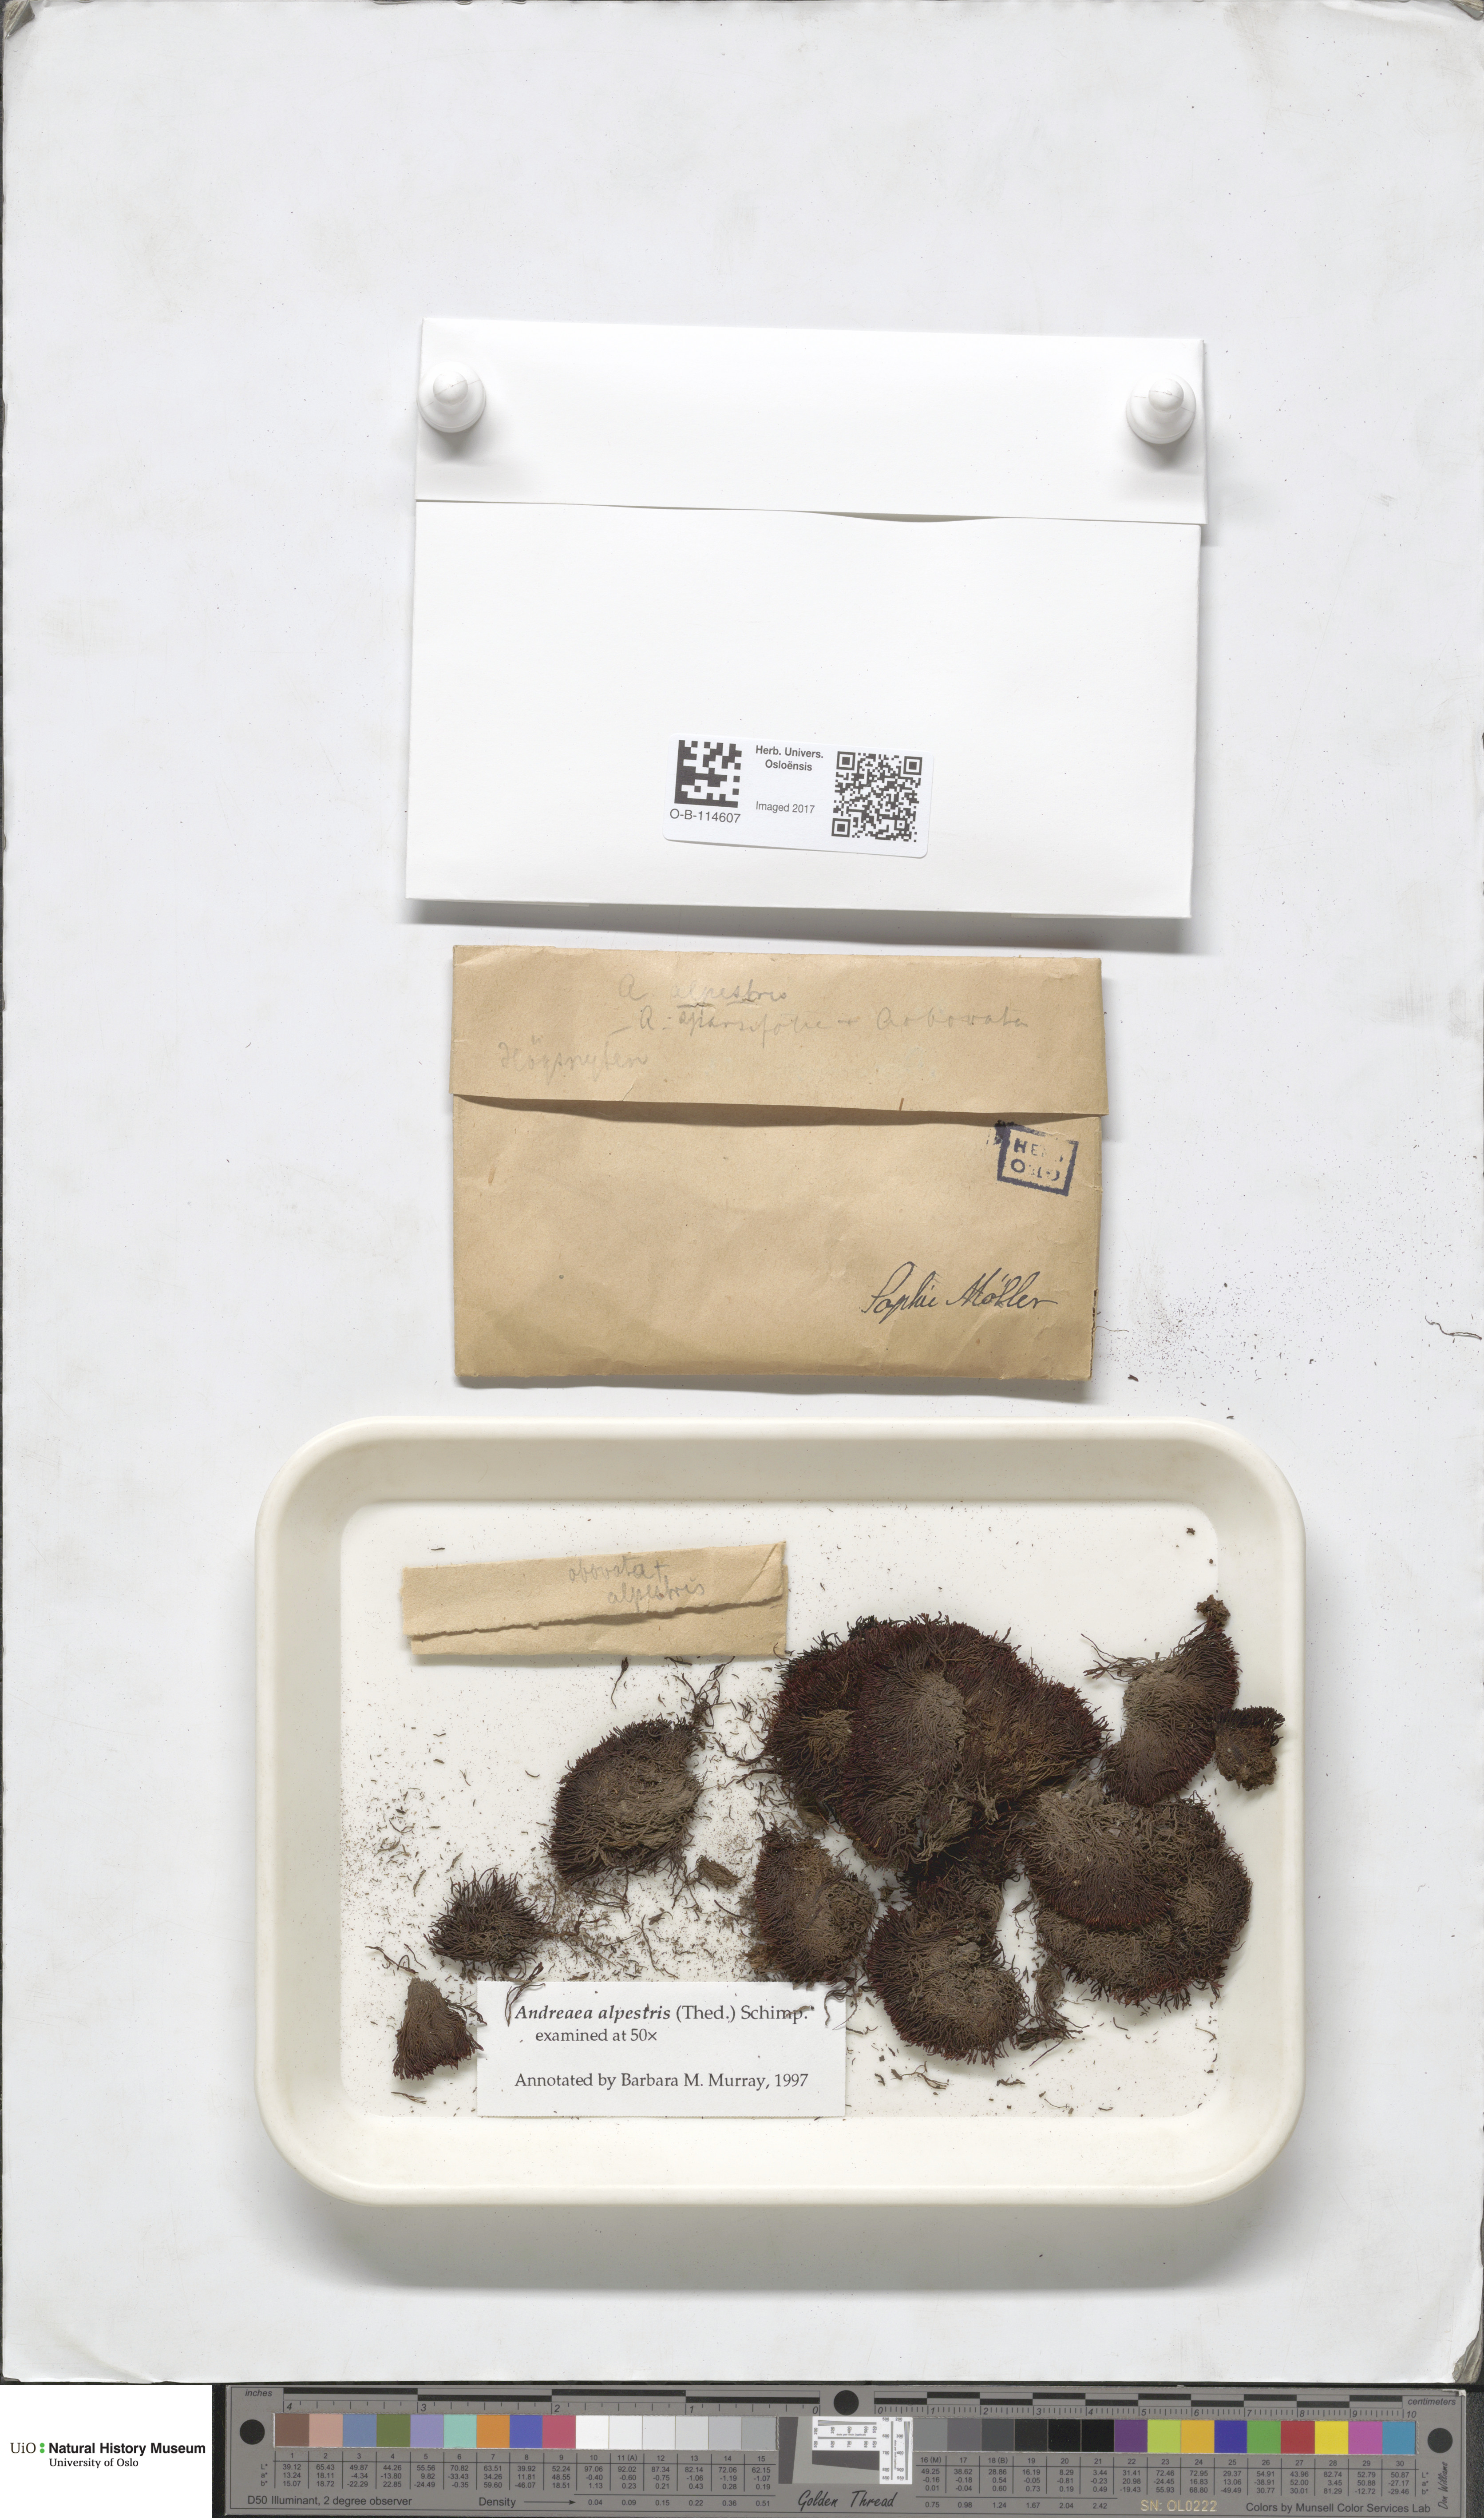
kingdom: Plantae
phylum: Bryophyta
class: Andreaeopsida
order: Andreaeales
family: Andreaeaceae
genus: Andreaea
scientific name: Andreaea alpestris
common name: Slender rock-moss
